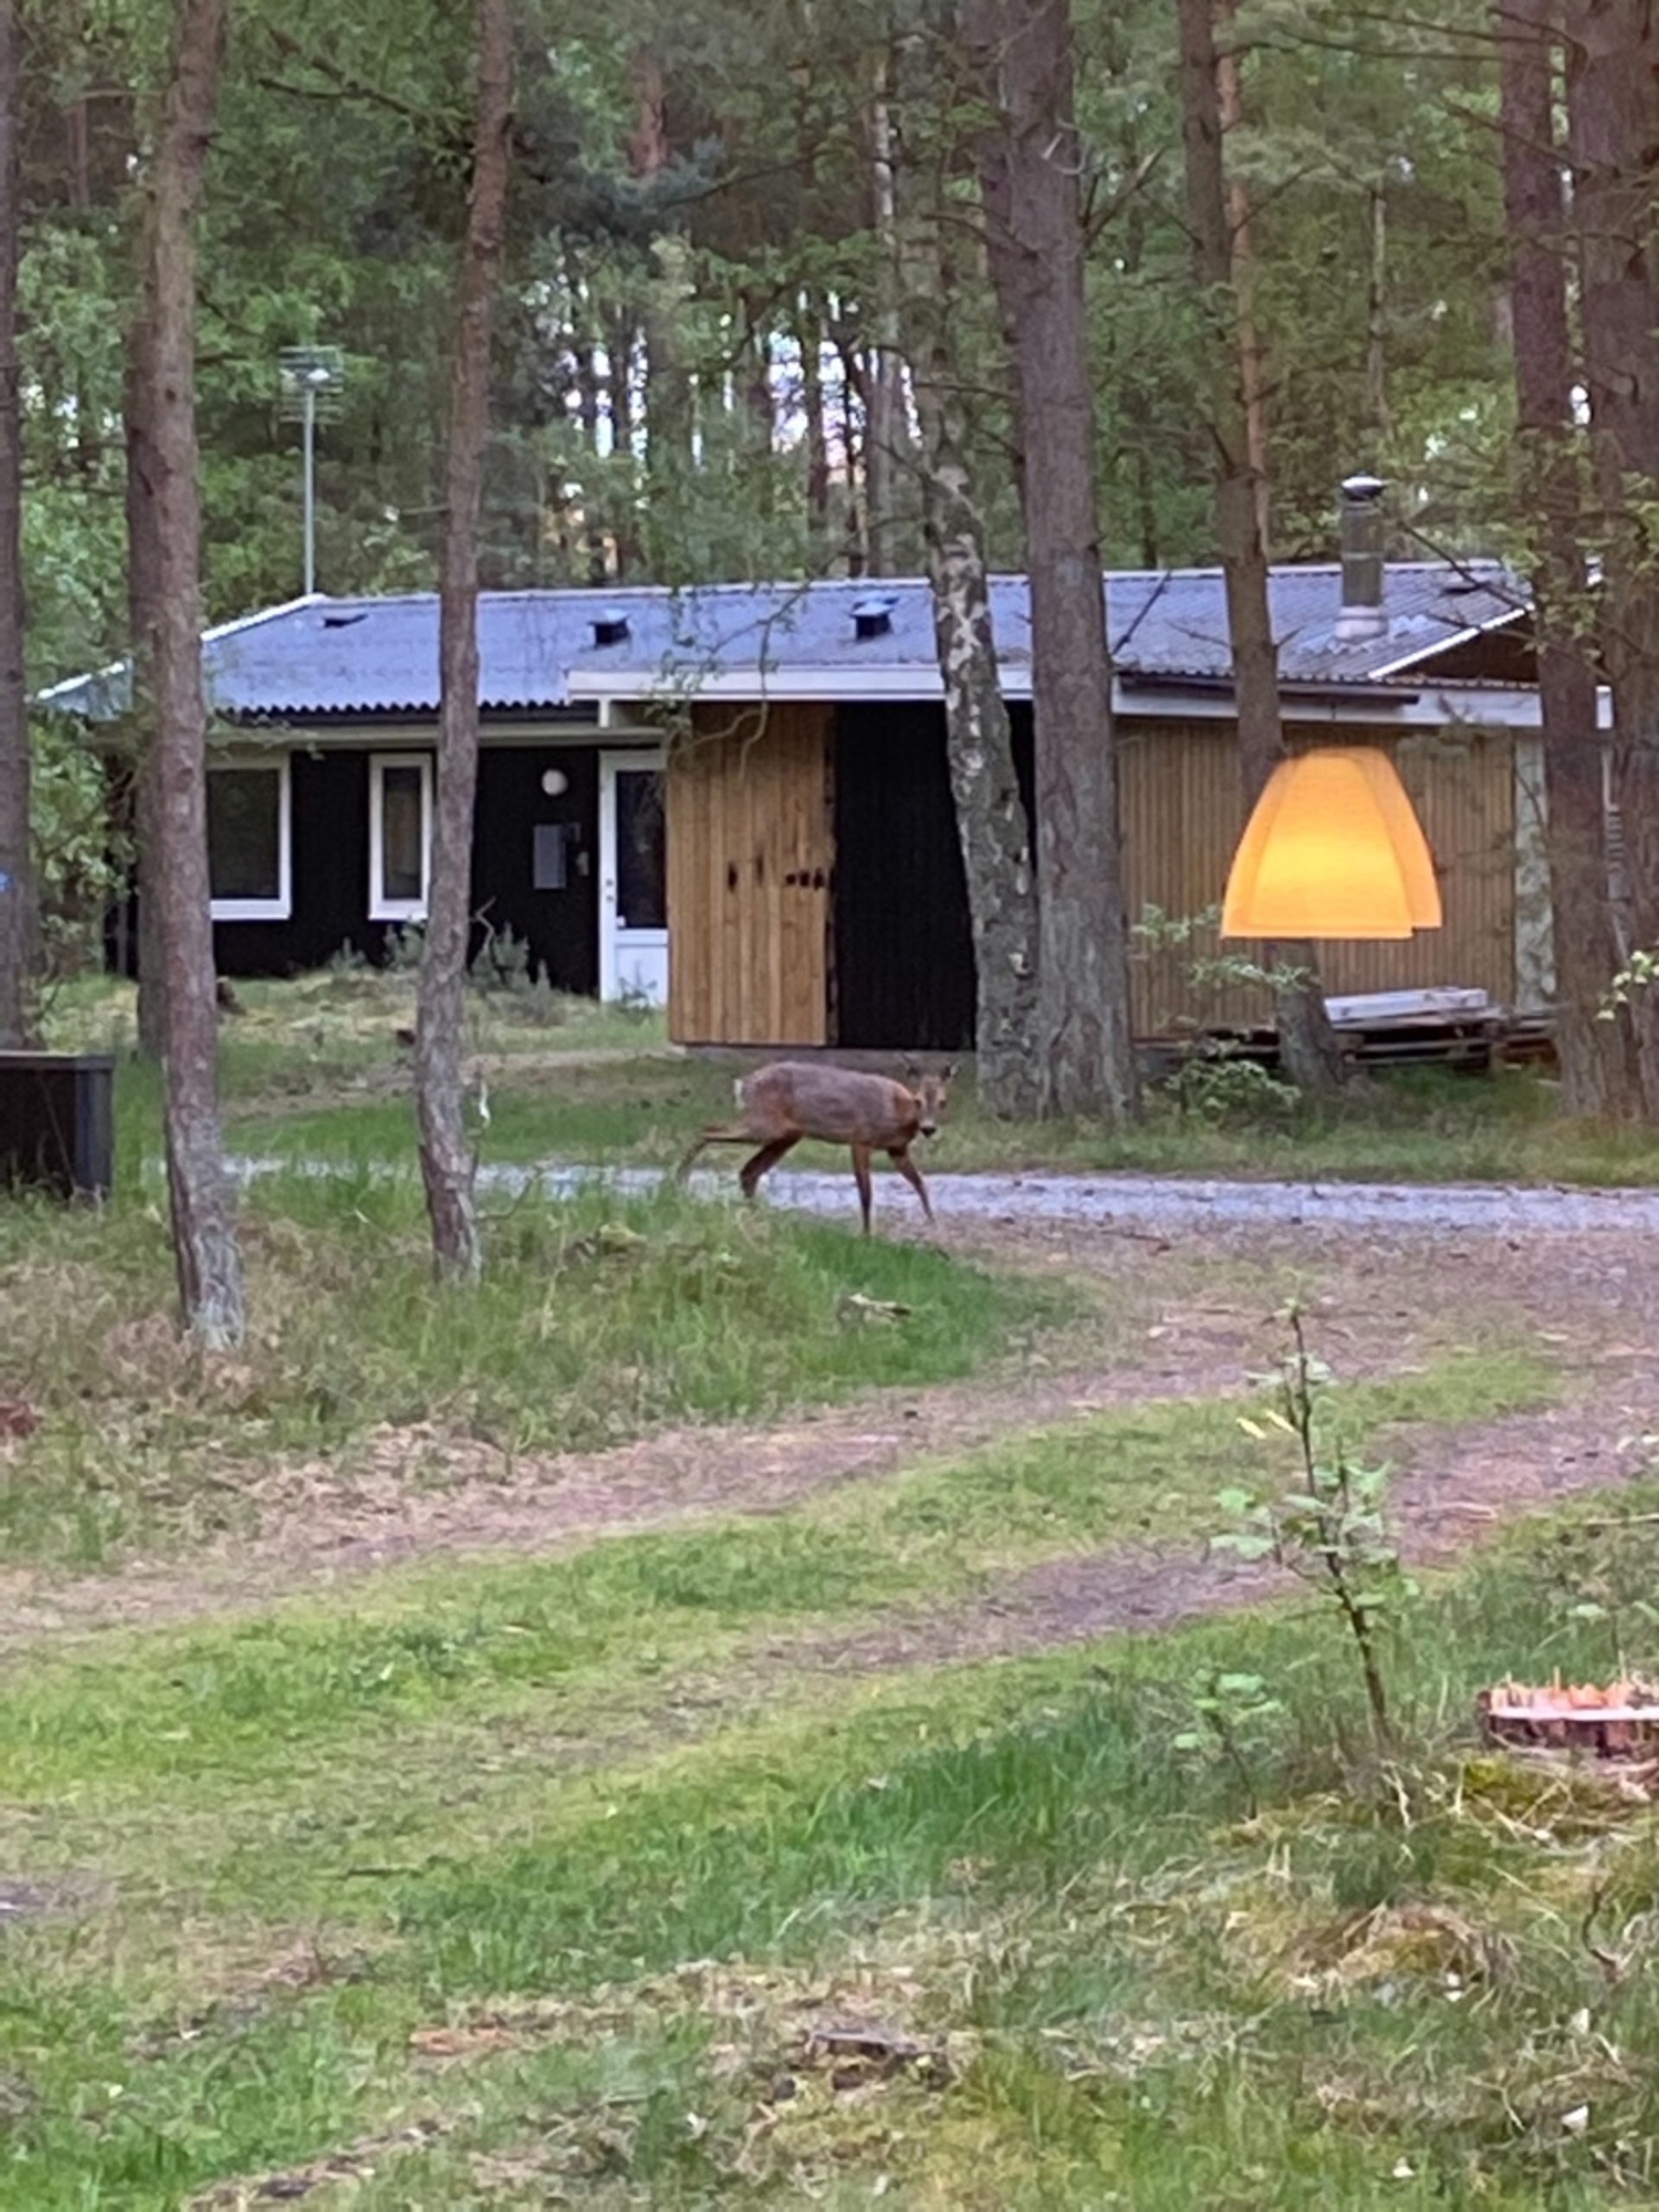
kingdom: Animalia
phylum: Chordata
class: Mammalia
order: Artiodactyla
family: Cervidae
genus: Capreolus
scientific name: Capreolus capreolus
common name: Rådyr
